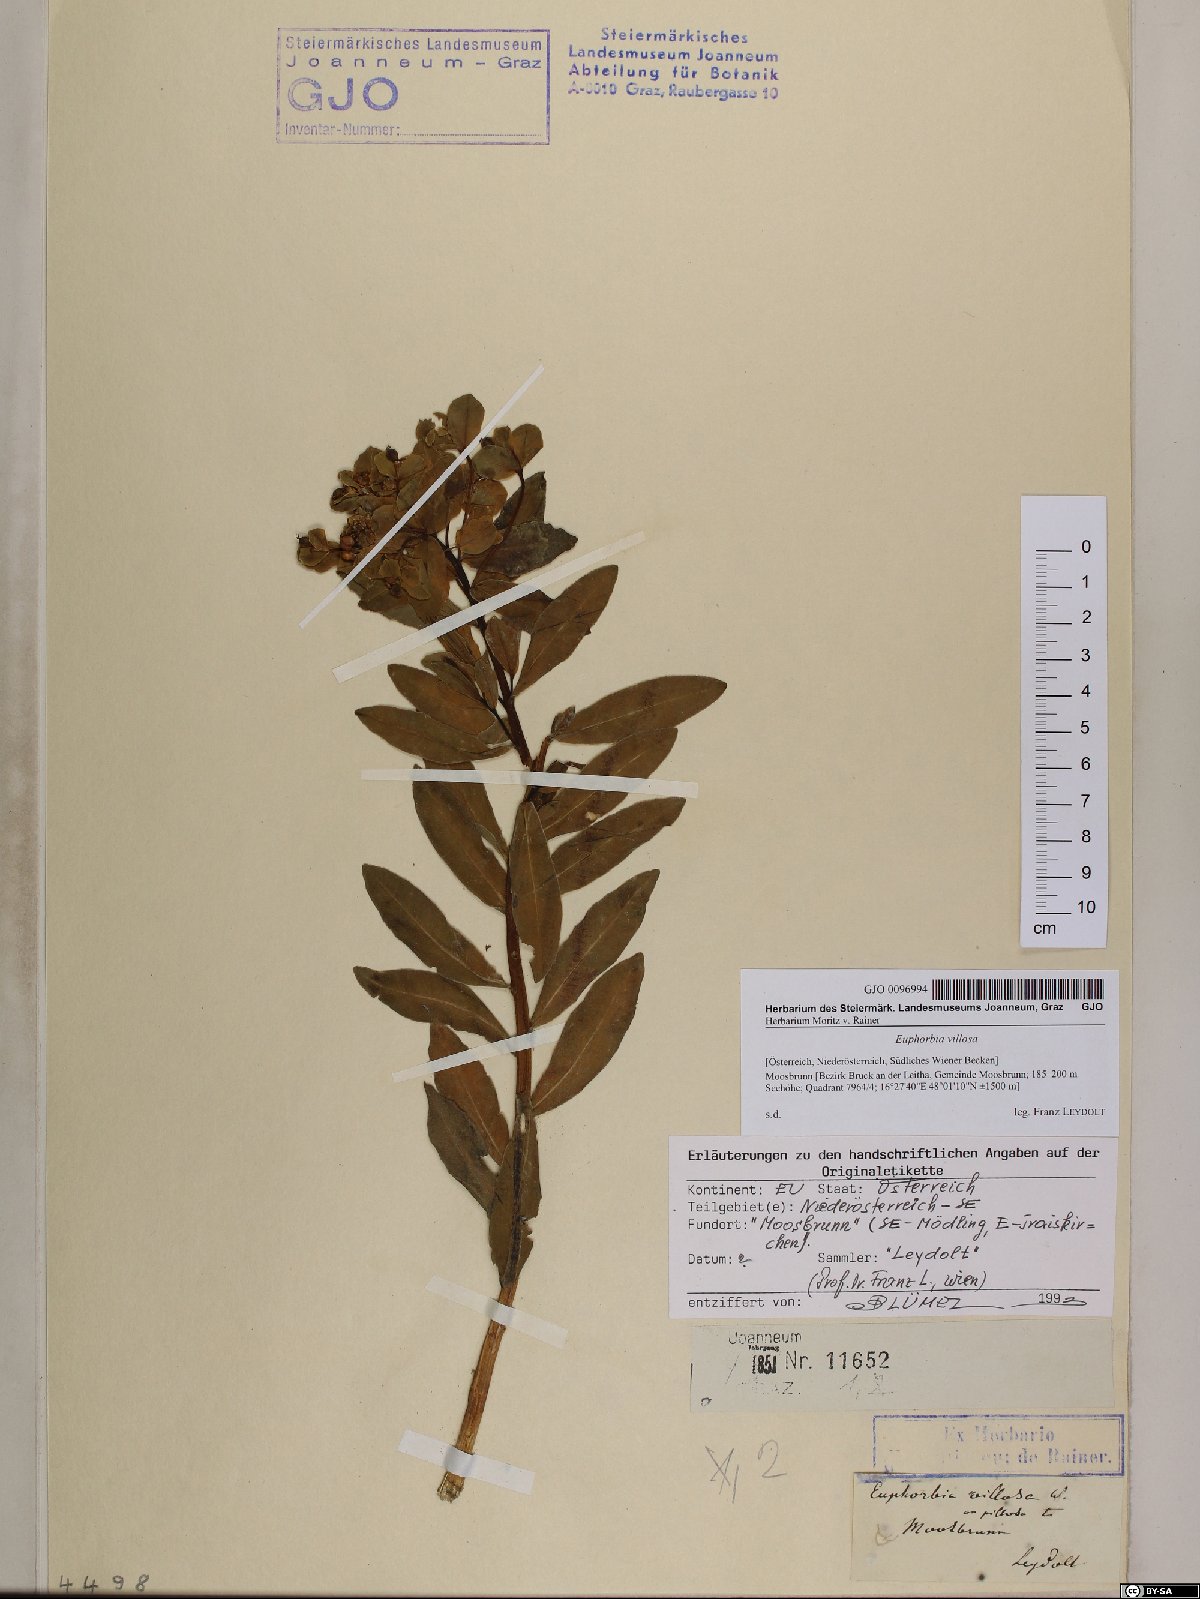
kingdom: Plantae
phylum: Tracheophyta
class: Magnoliopsida
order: Malpighiales
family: Euphorbiaceae
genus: Euphorbia
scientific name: Euphorbia illirica
